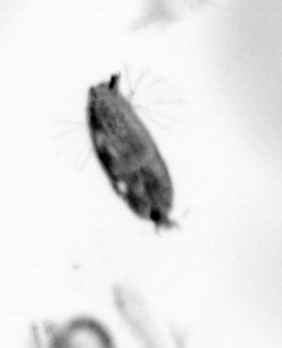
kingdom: Animalia
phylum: Arthropoda
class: Maxillopoda
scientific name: Maxillopoda
